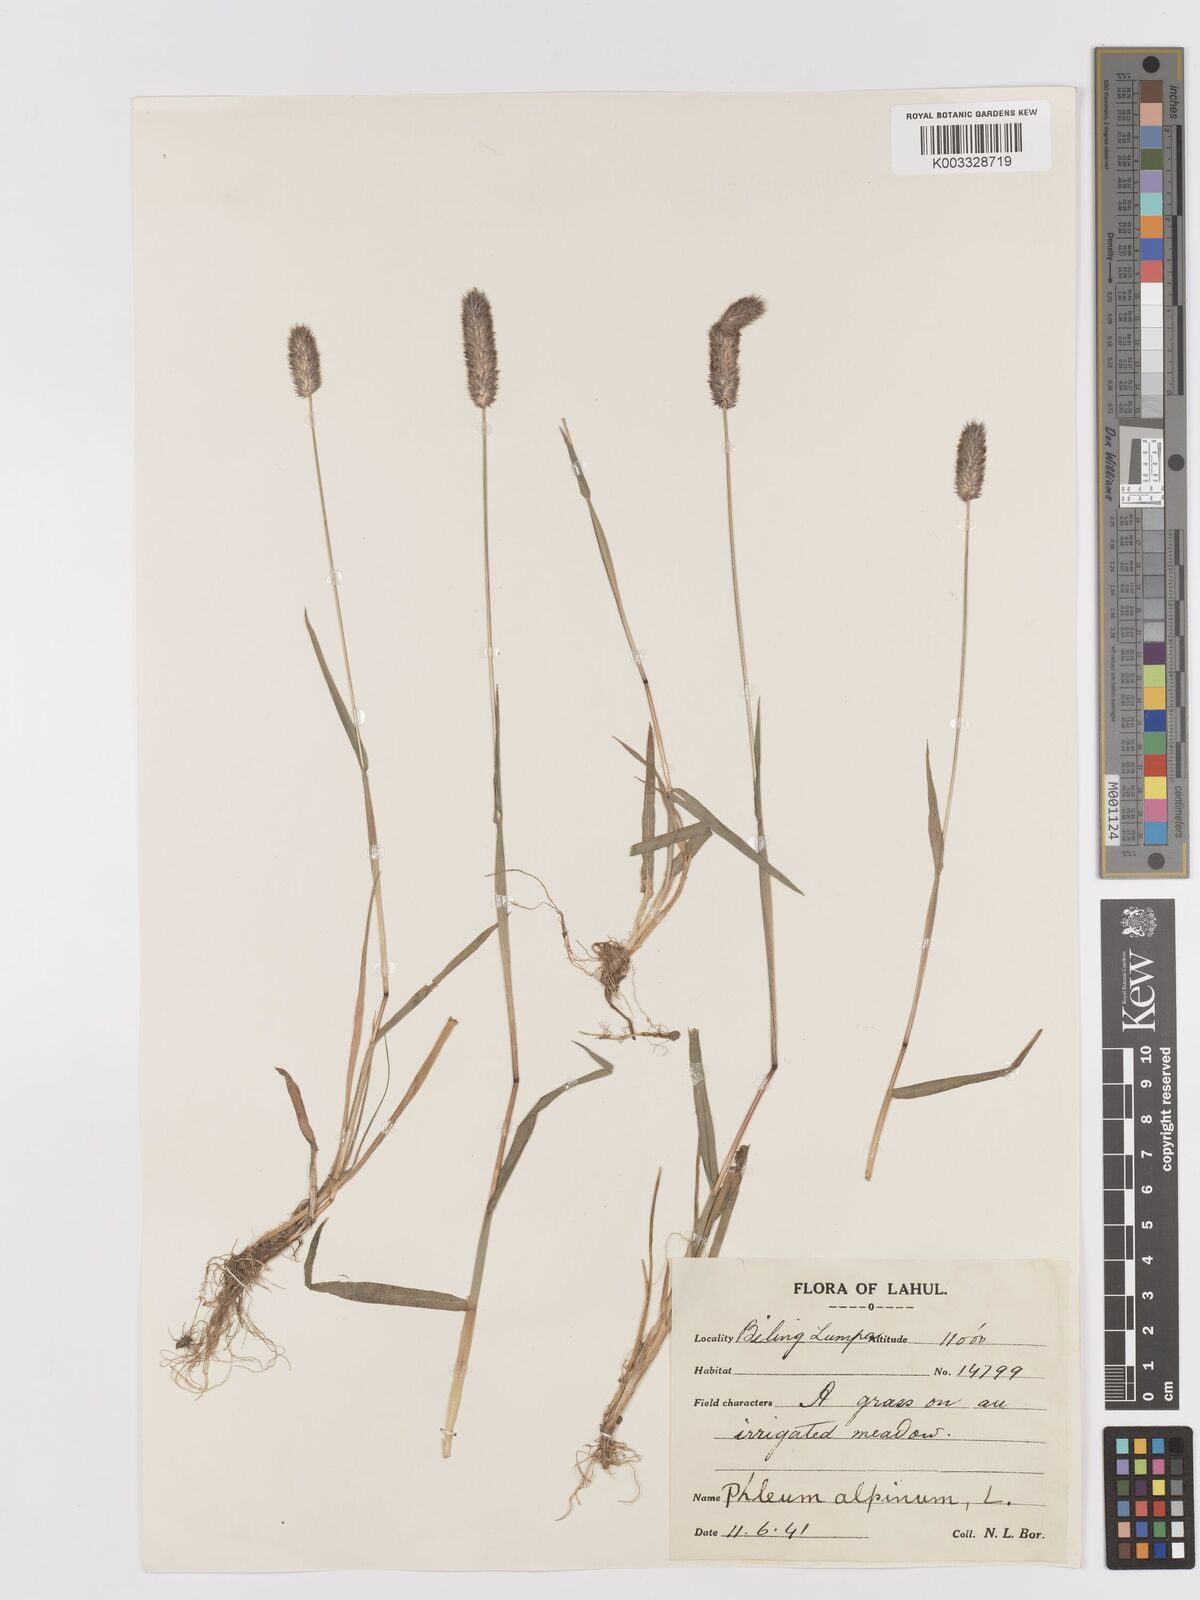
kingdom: Plantae
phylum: Tracheophyta
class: Liliopsida
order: Poales
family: Poaceae
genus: Phleum
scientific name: Phleum alpinum
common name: Alpine cat's-tail
